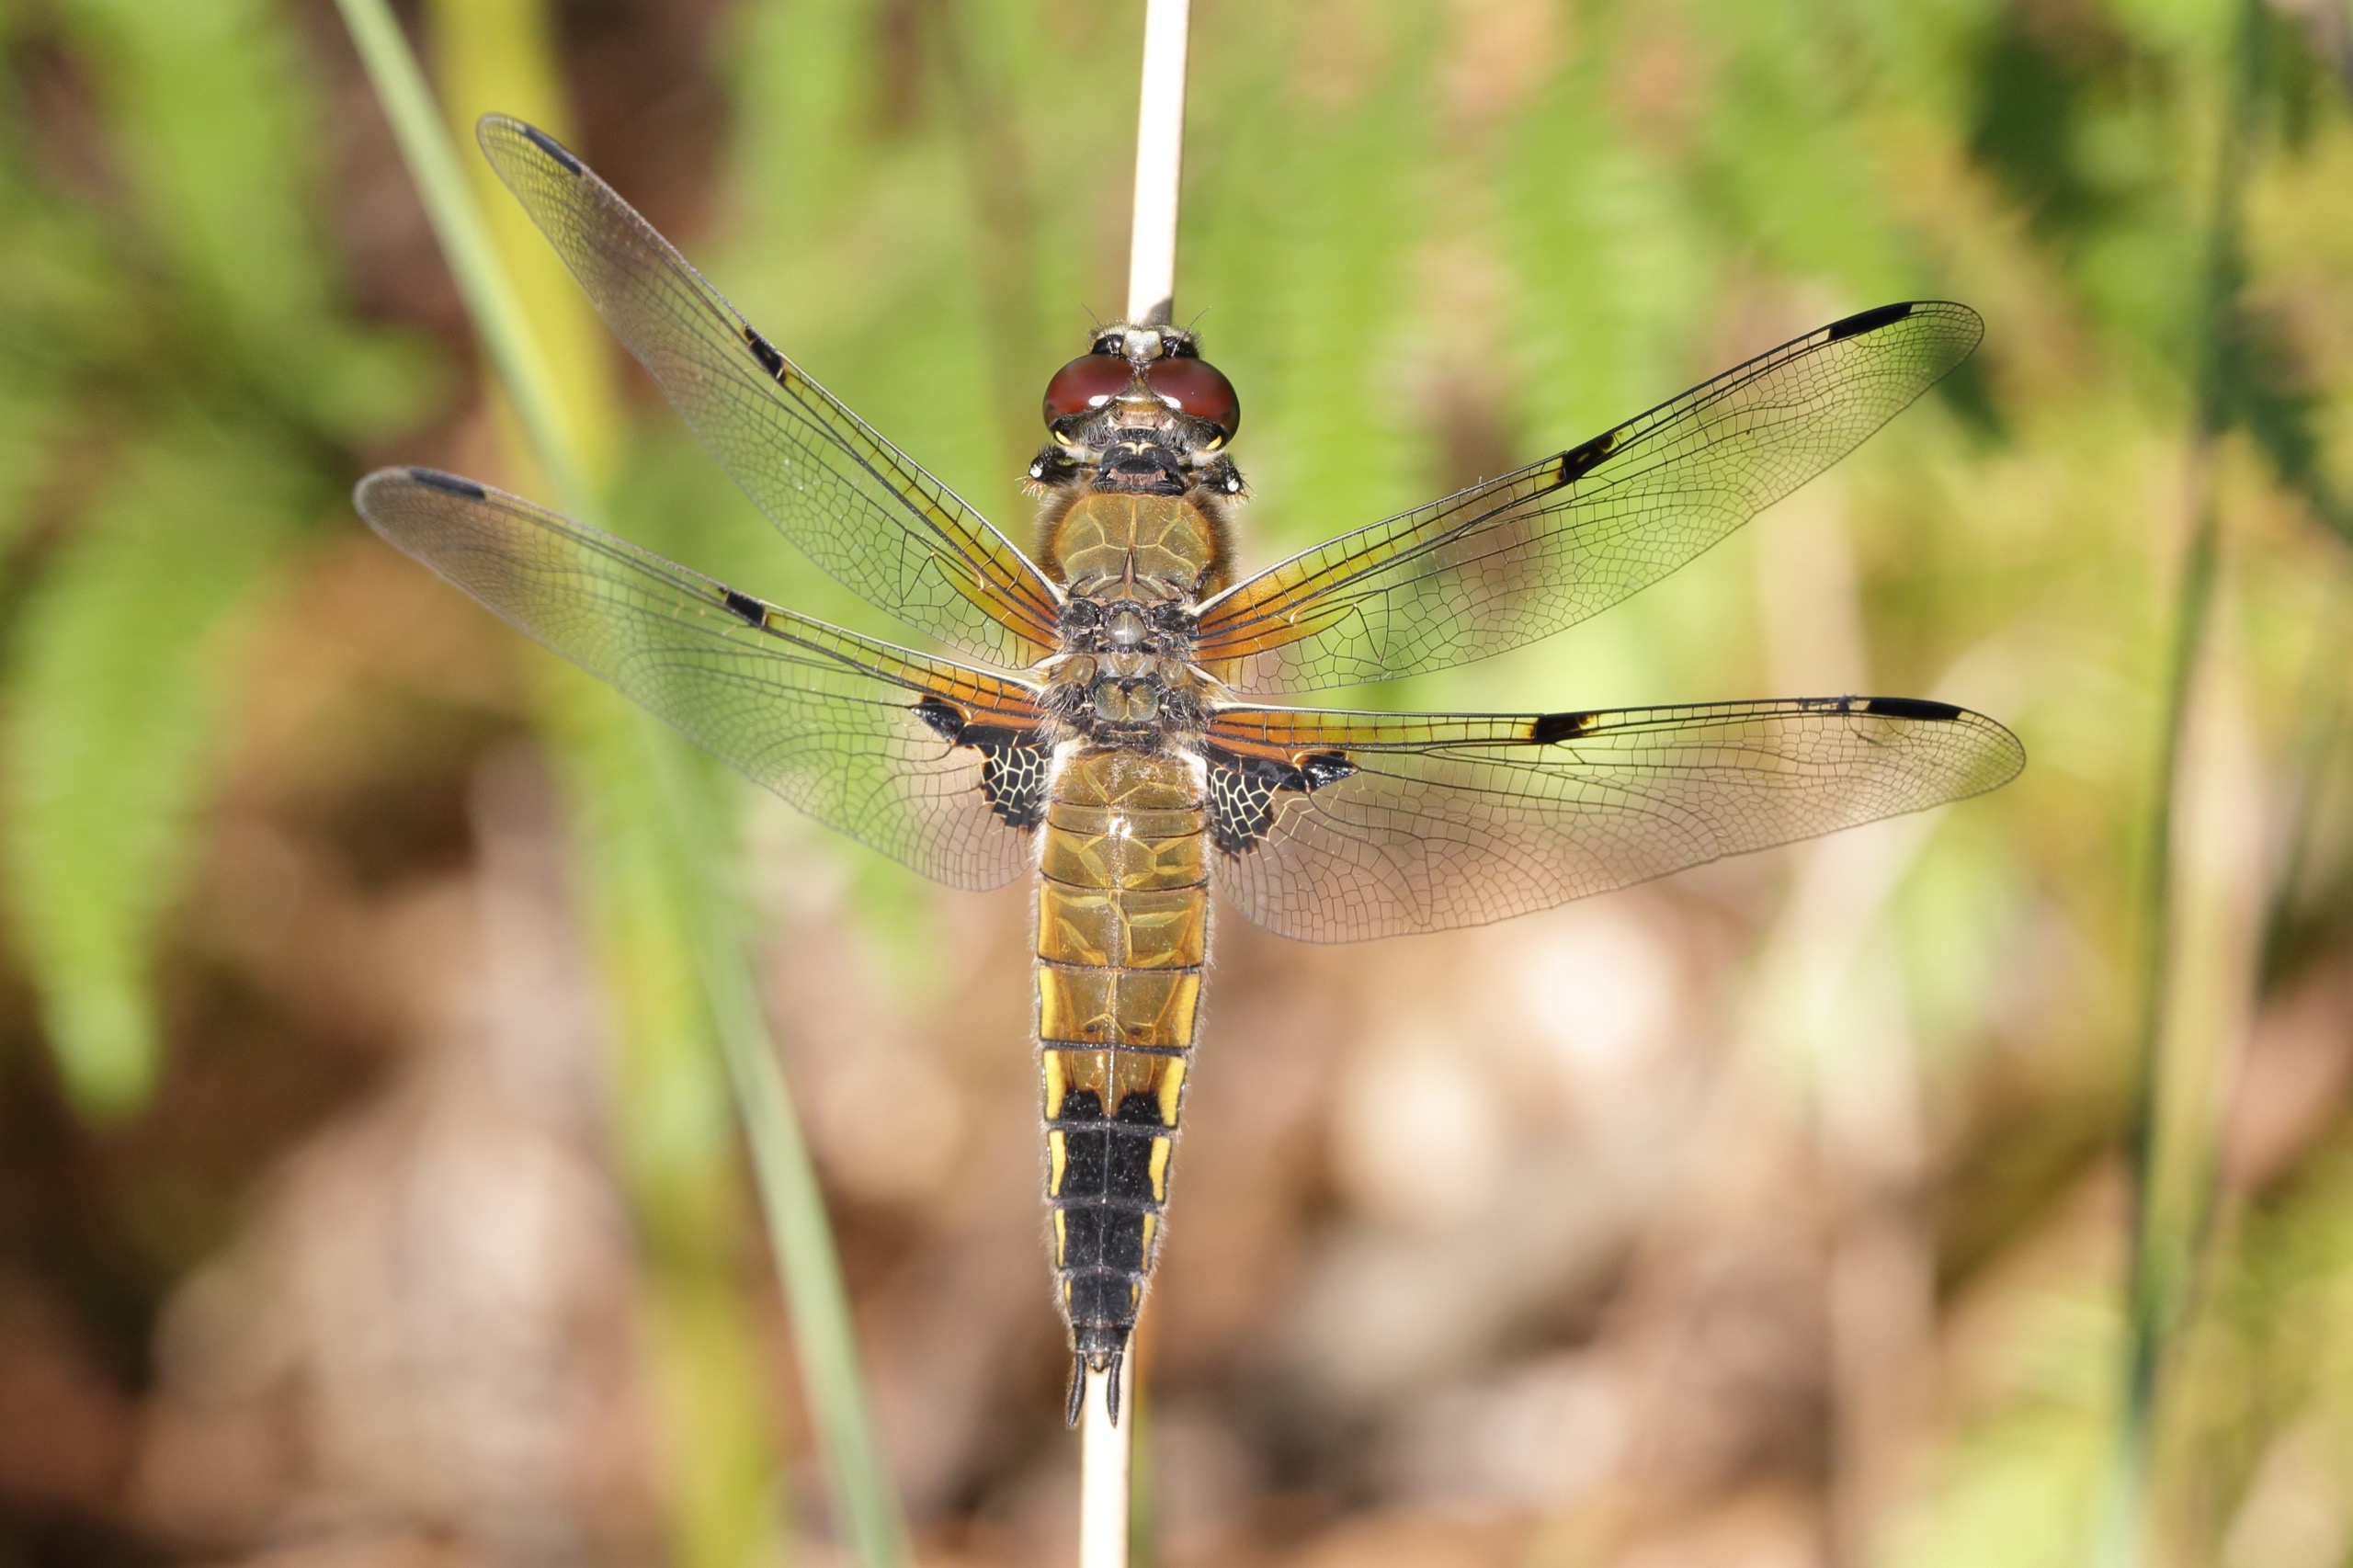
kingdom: Animalia
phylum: Arthropoda
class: Insecta
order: Odonata
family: Libellulidae
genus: Libellula
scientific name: Libellula quadrimaculata
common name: Fireplettet libel
